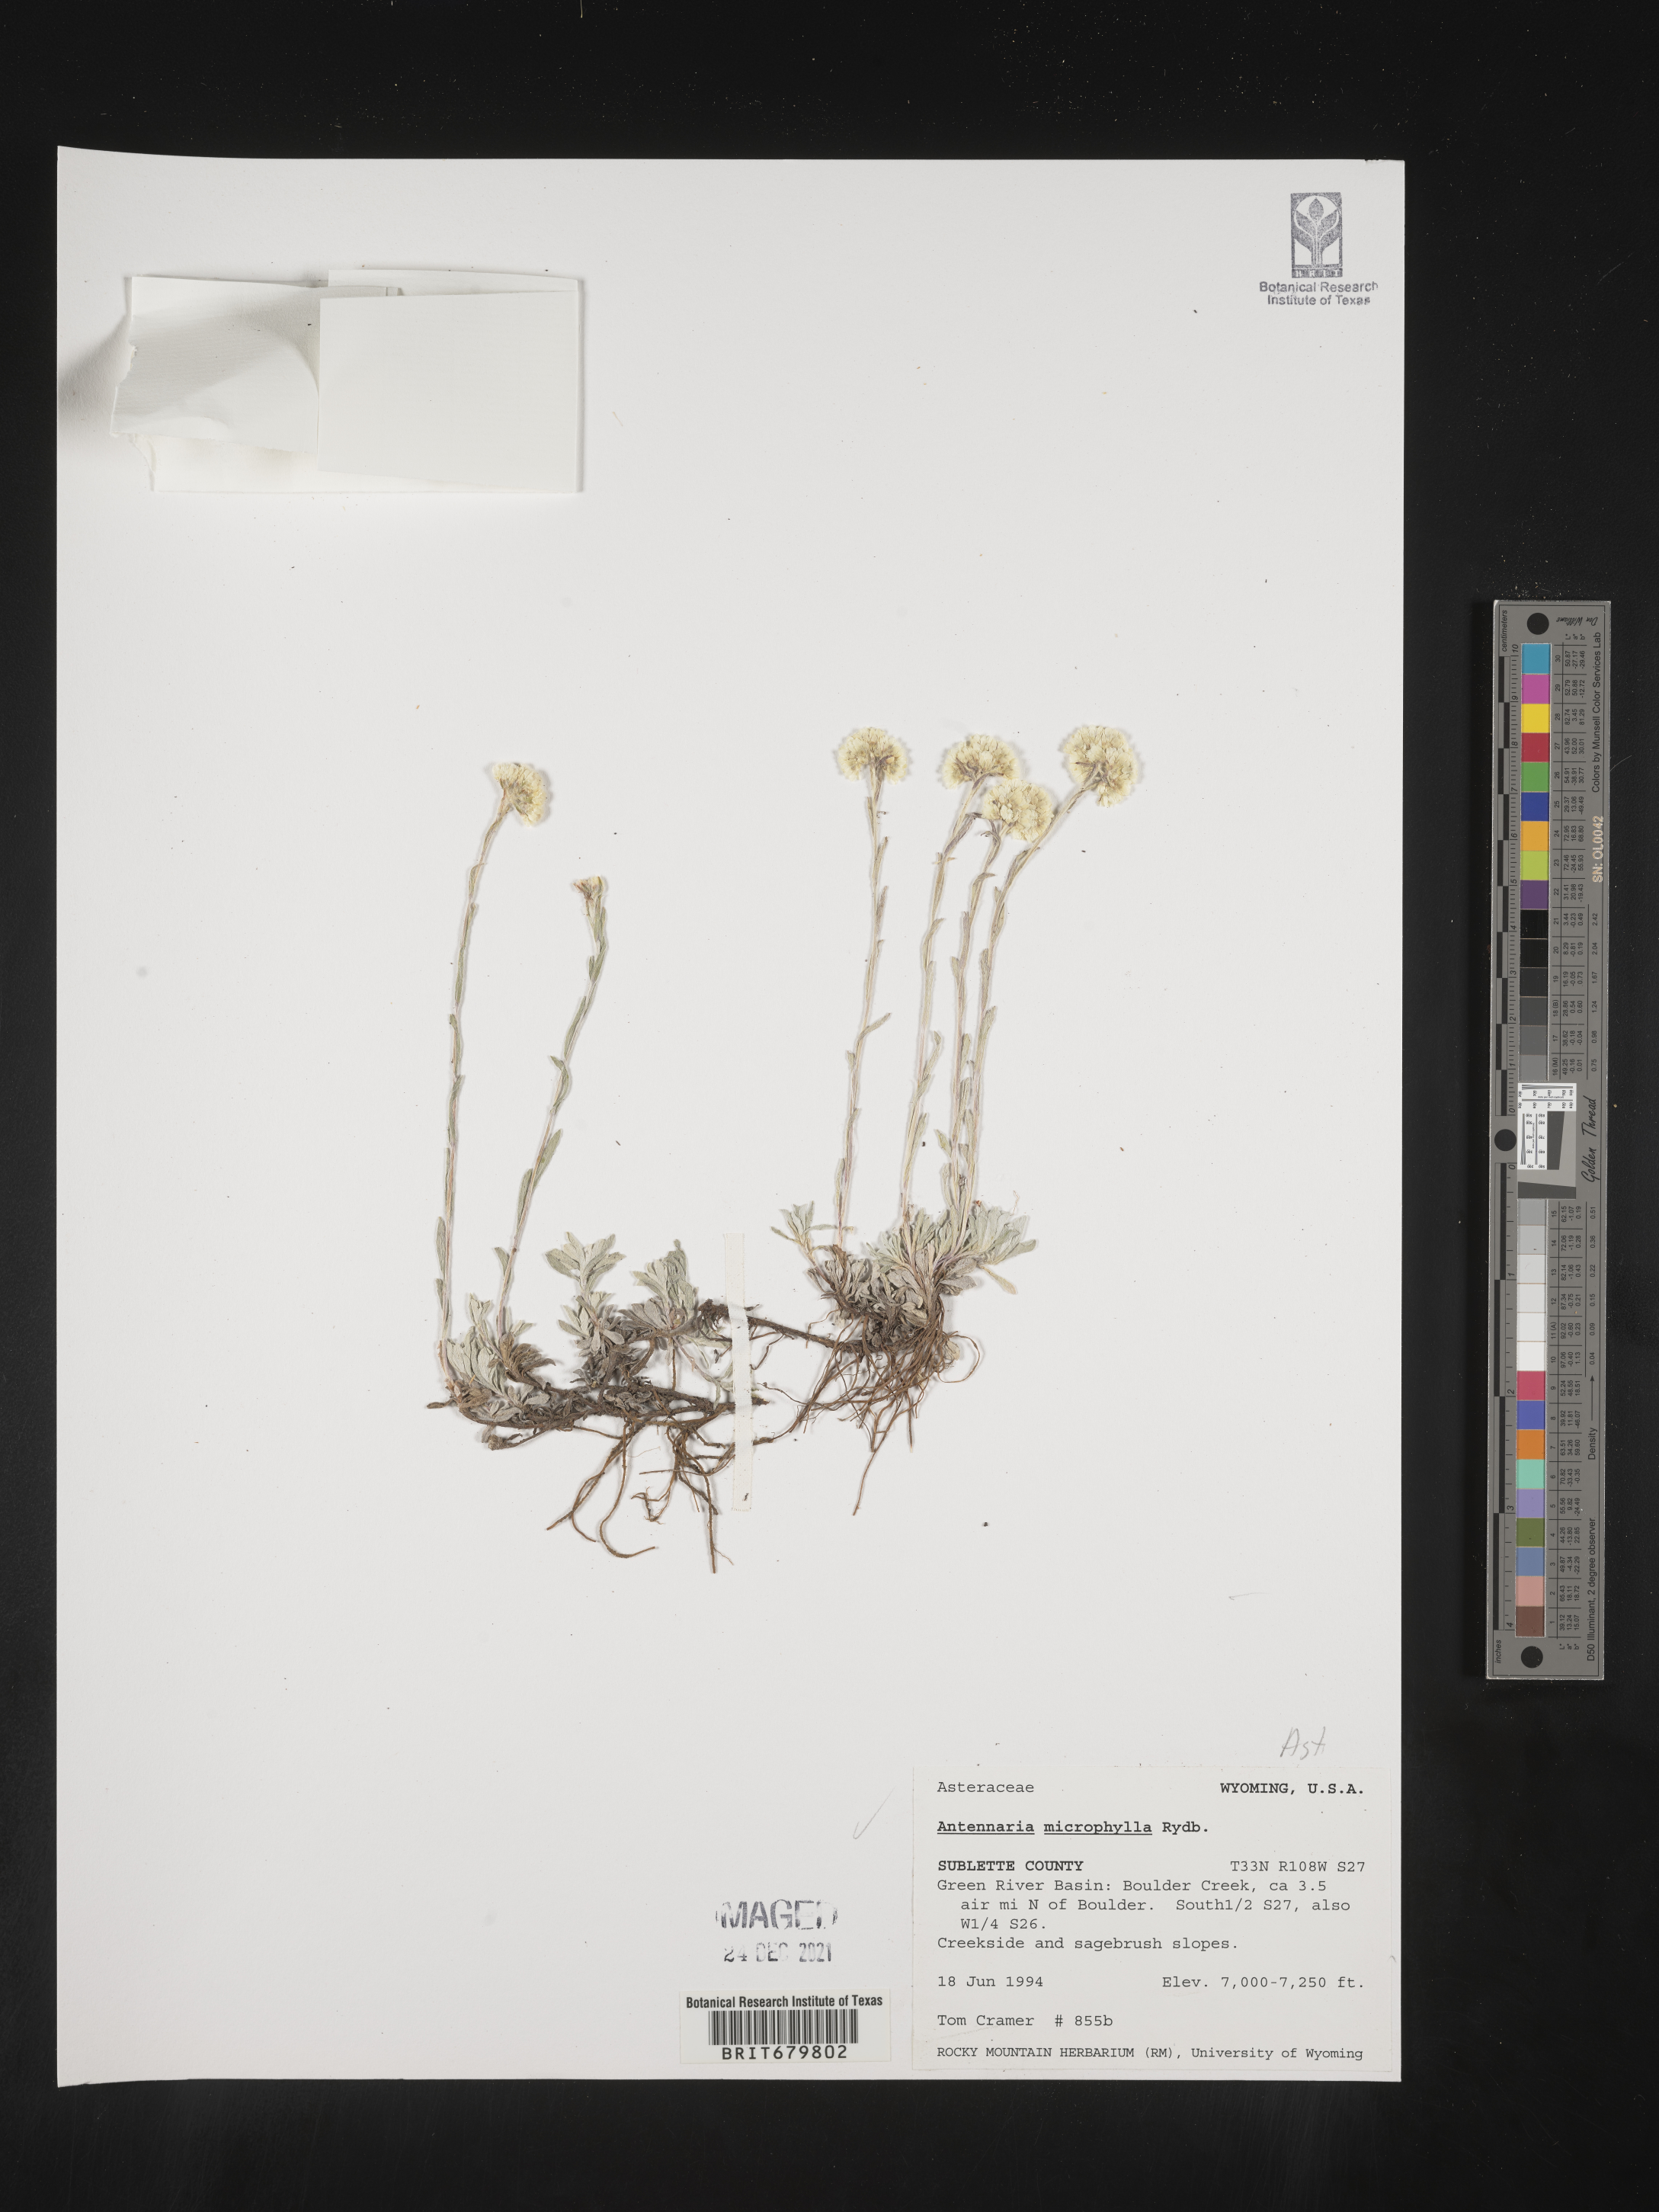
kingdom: Plantae
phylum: Tracheophyta
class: Magnoliopsida
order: Asterales
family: Asteraceae
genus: Antennaria
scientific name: Antennaria microphylla
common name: Littleleaf pussytoes
